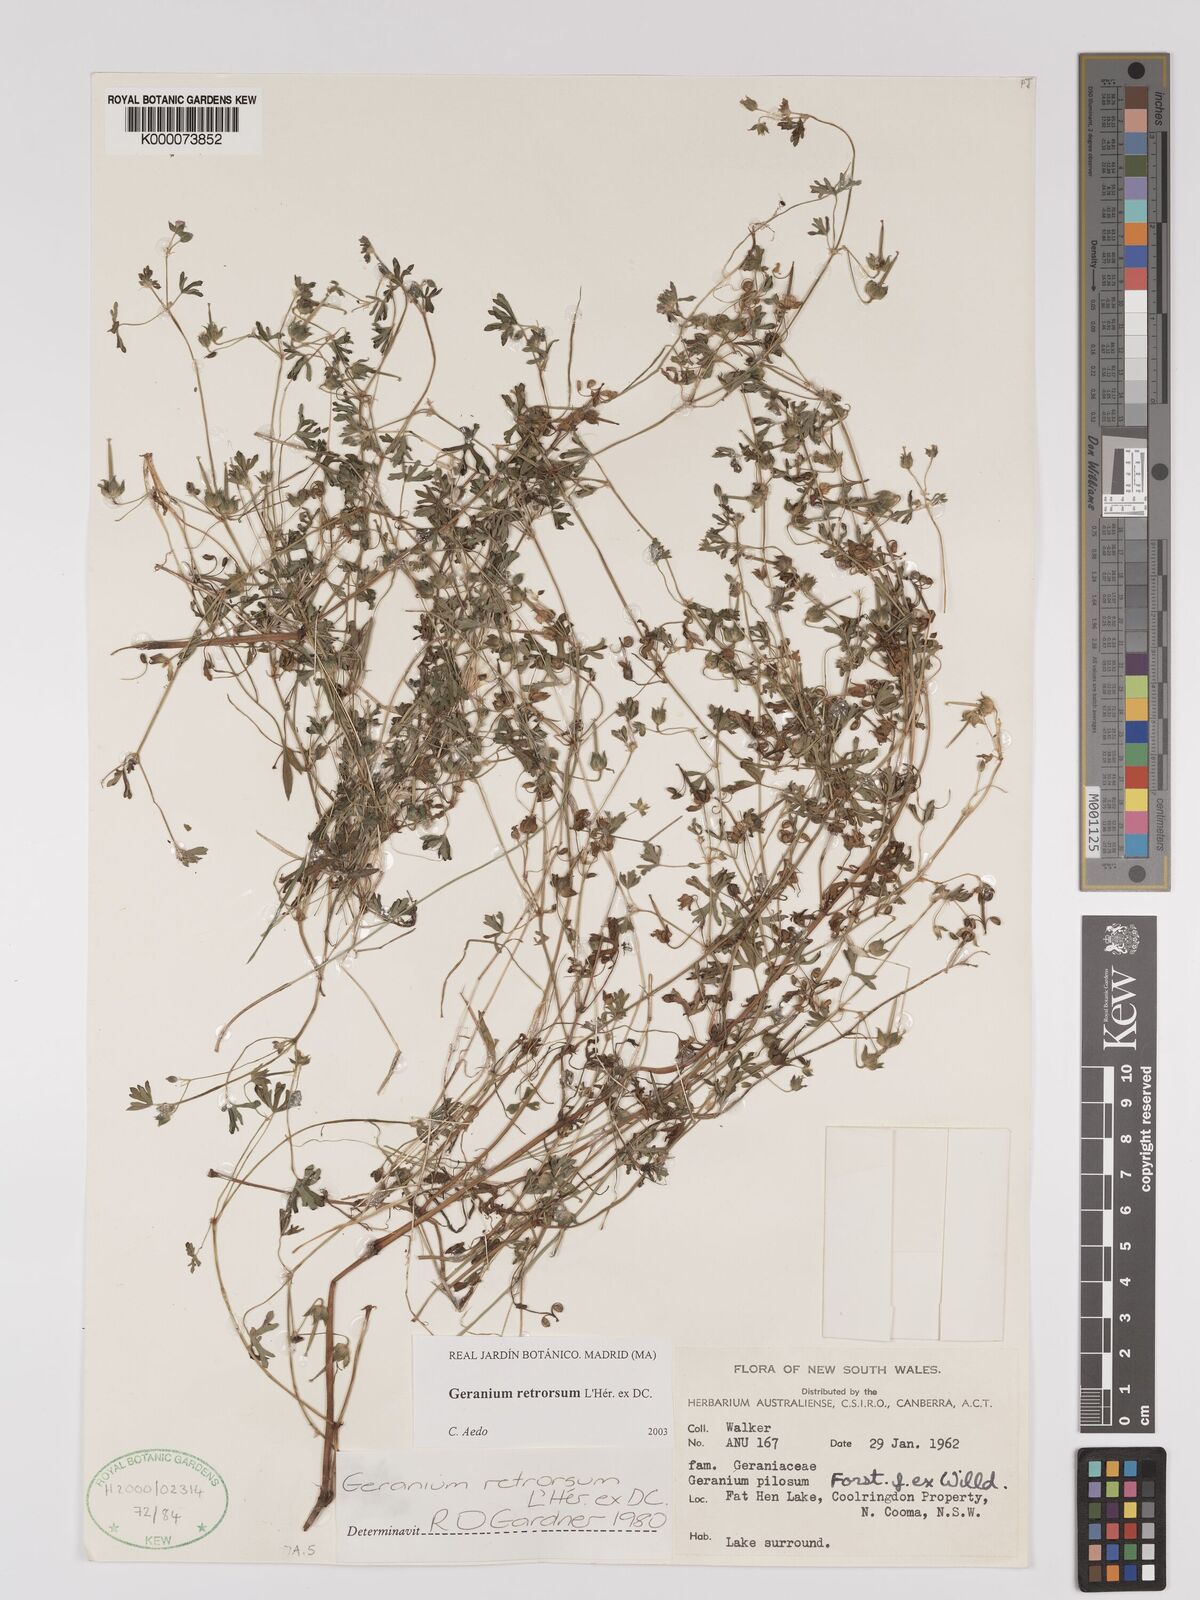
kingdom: Plantae
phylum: Tracheophyta
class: Magnoliopsida
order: Geraniales
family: Geraniaceae
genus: Geranium
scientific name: Geranium retrorsum
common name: New zealand geranium
